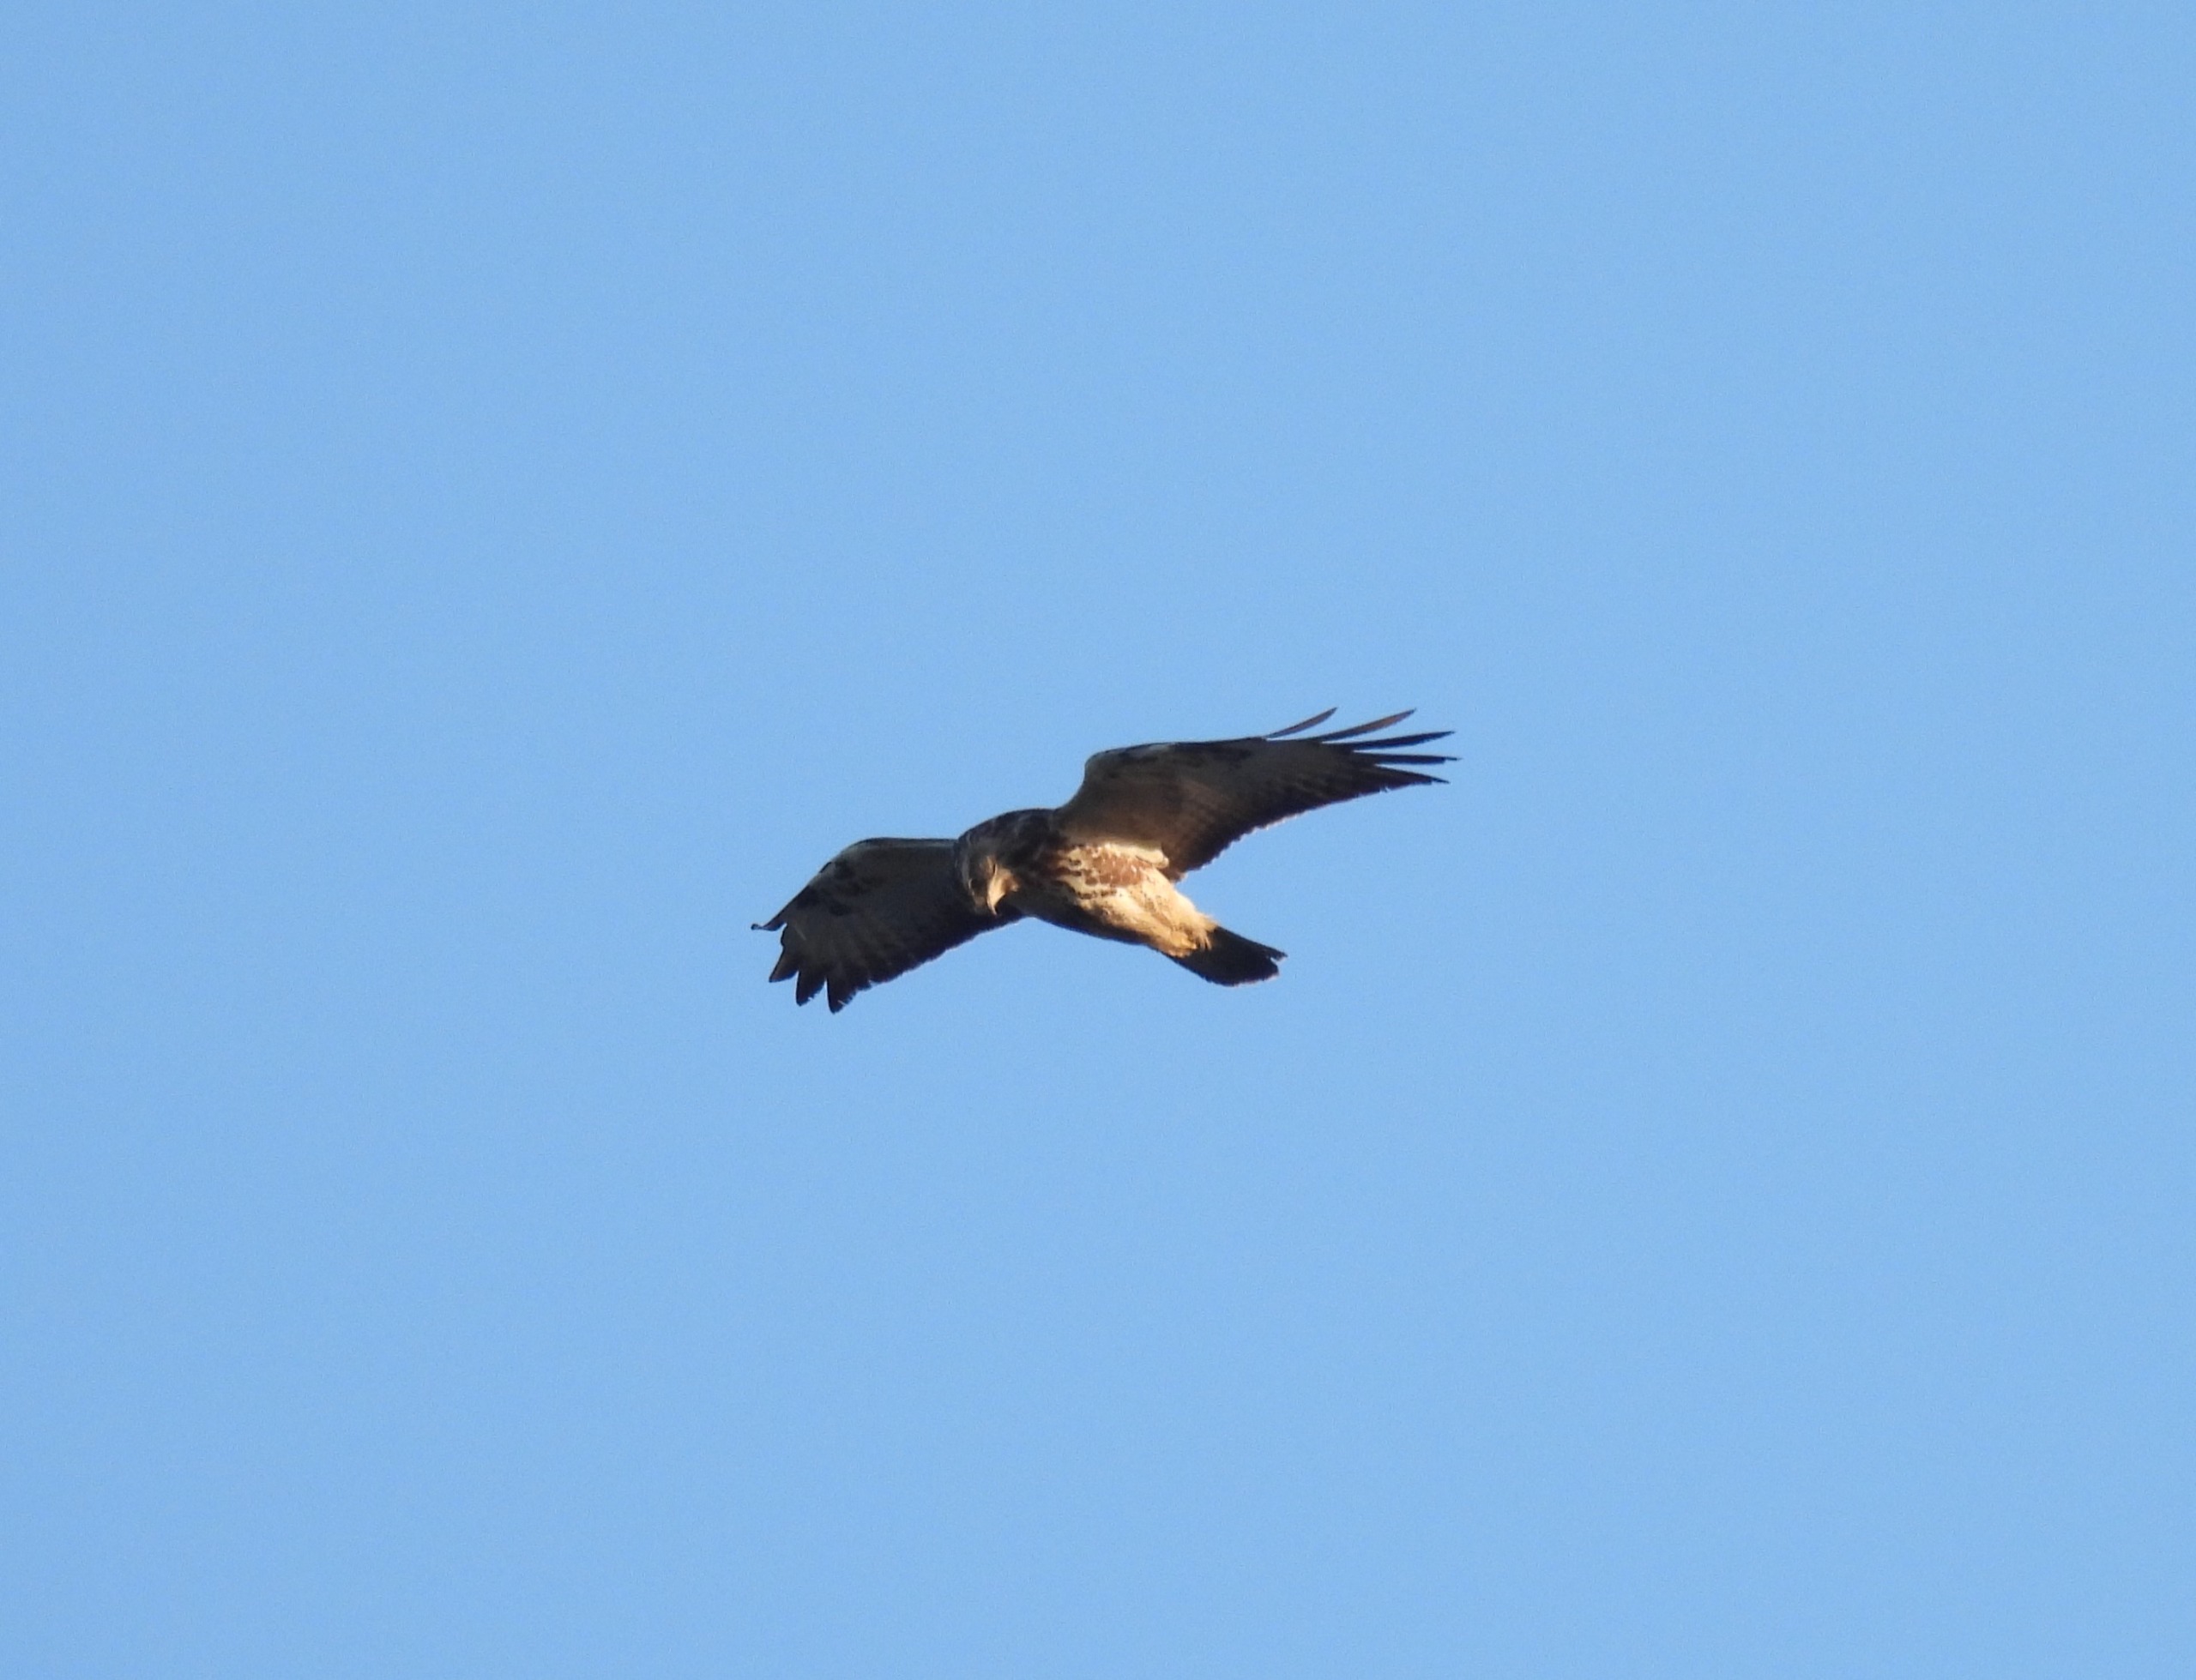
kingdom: Animalia
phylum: Chordata
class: Aves
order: Accipitriformes
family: Accipitridae
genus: Buteo
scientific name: Buteo buteo
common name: Musvåge
